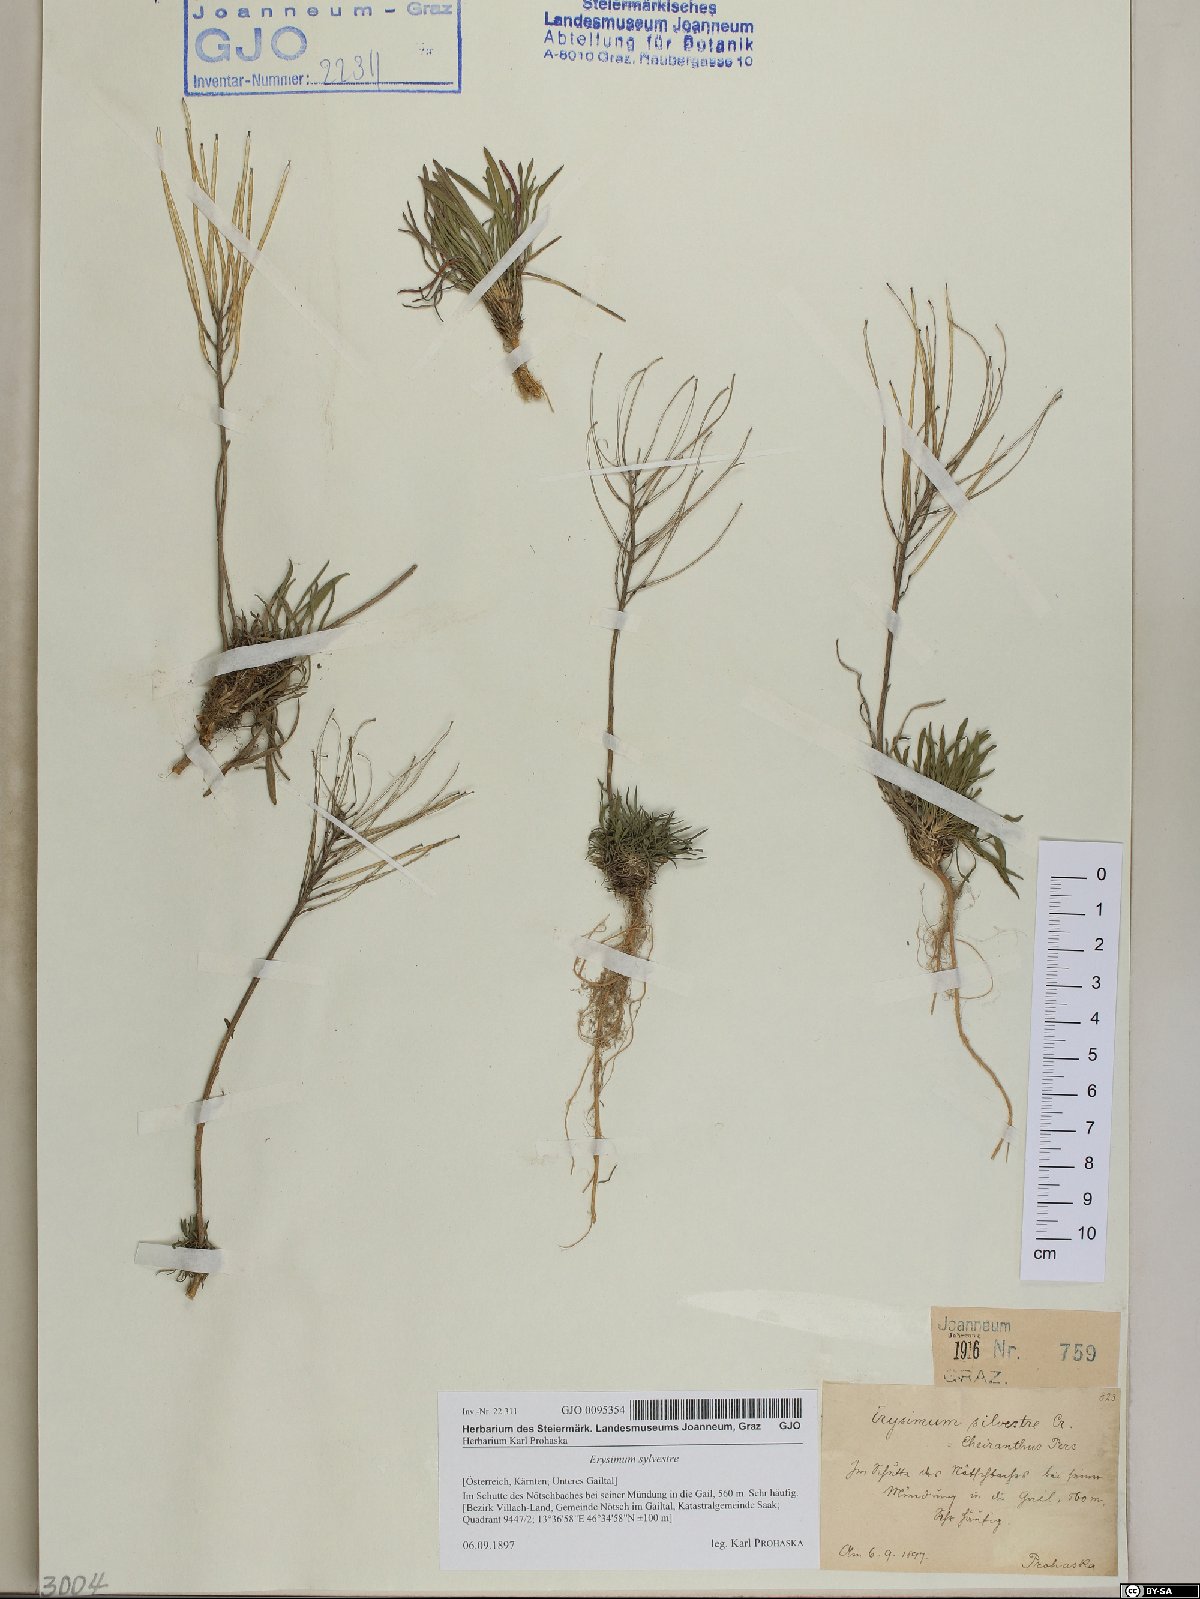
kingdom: Plantae
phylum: Tracheophyta
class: Magnoliopsida
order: Brassicales
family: Brassicaceae
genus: Erysimum
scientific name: Erysimum sylvestre
